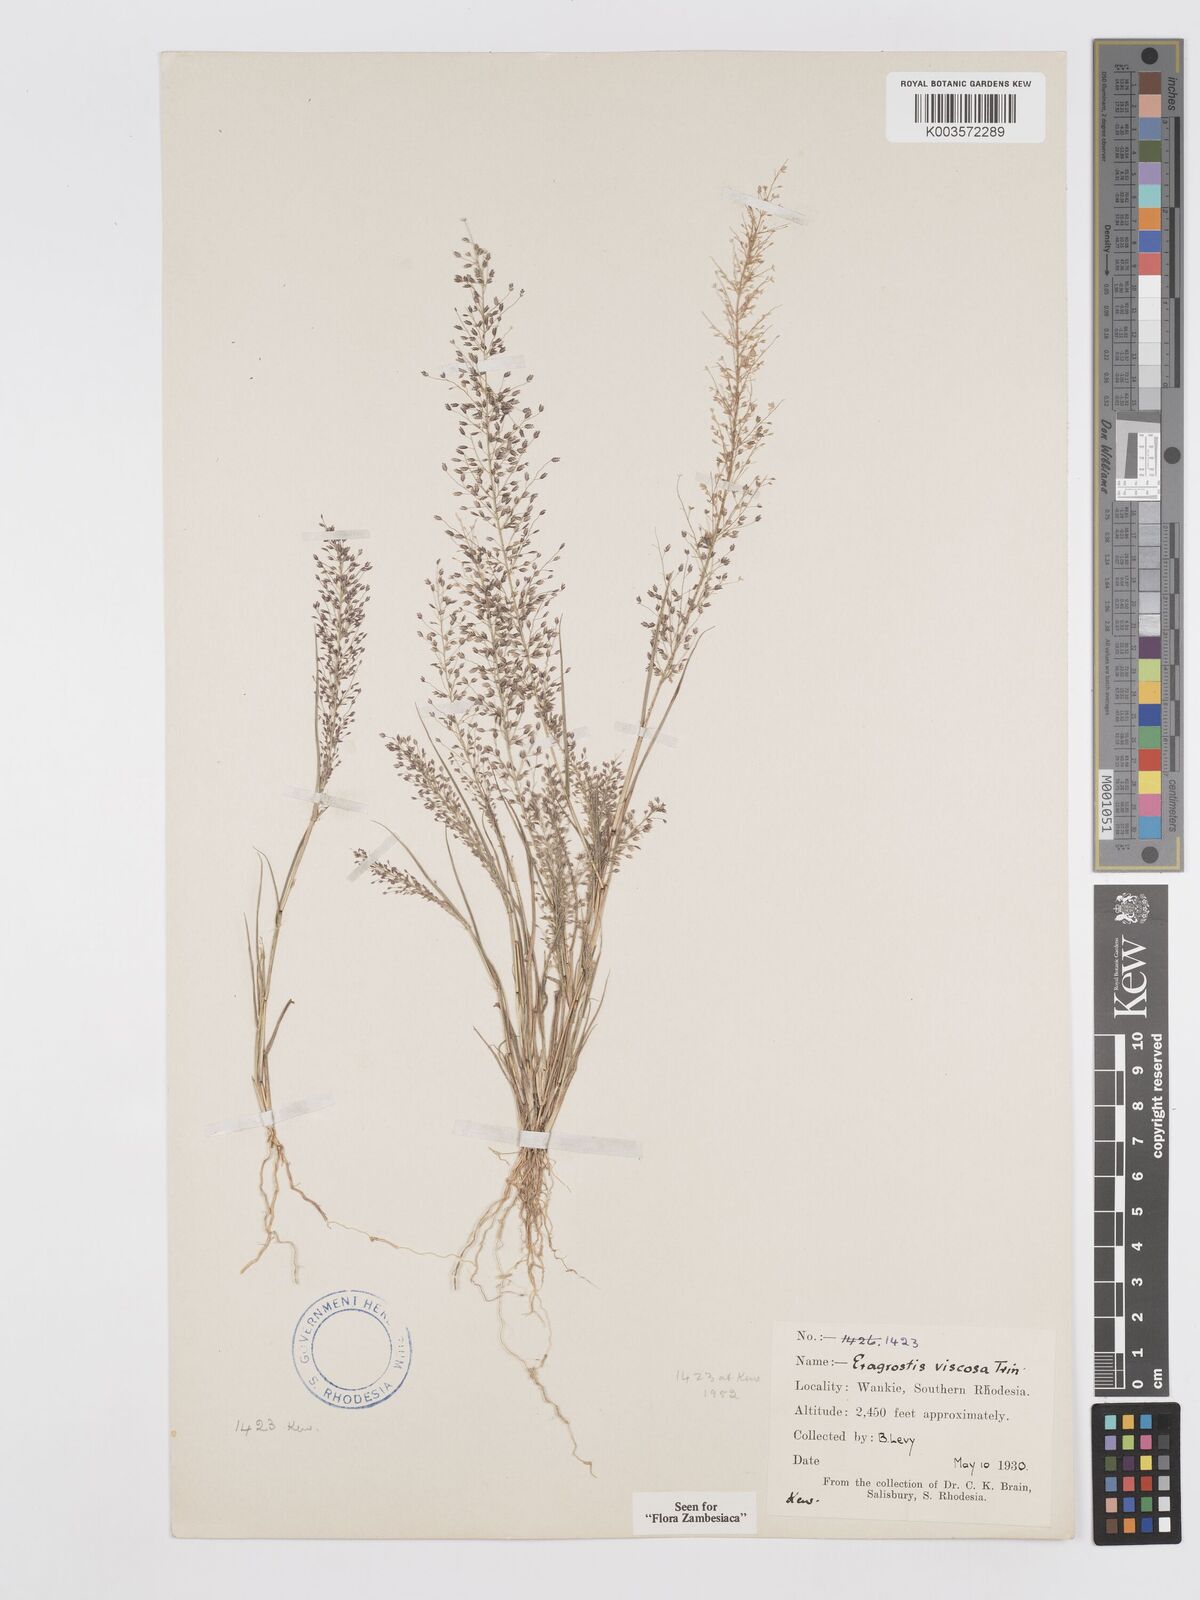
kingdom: Plantae
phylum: Tracheophyta
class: Liliopsida
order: Poales
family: Poaceae
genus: Eragrostis
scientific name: Eragrostis
